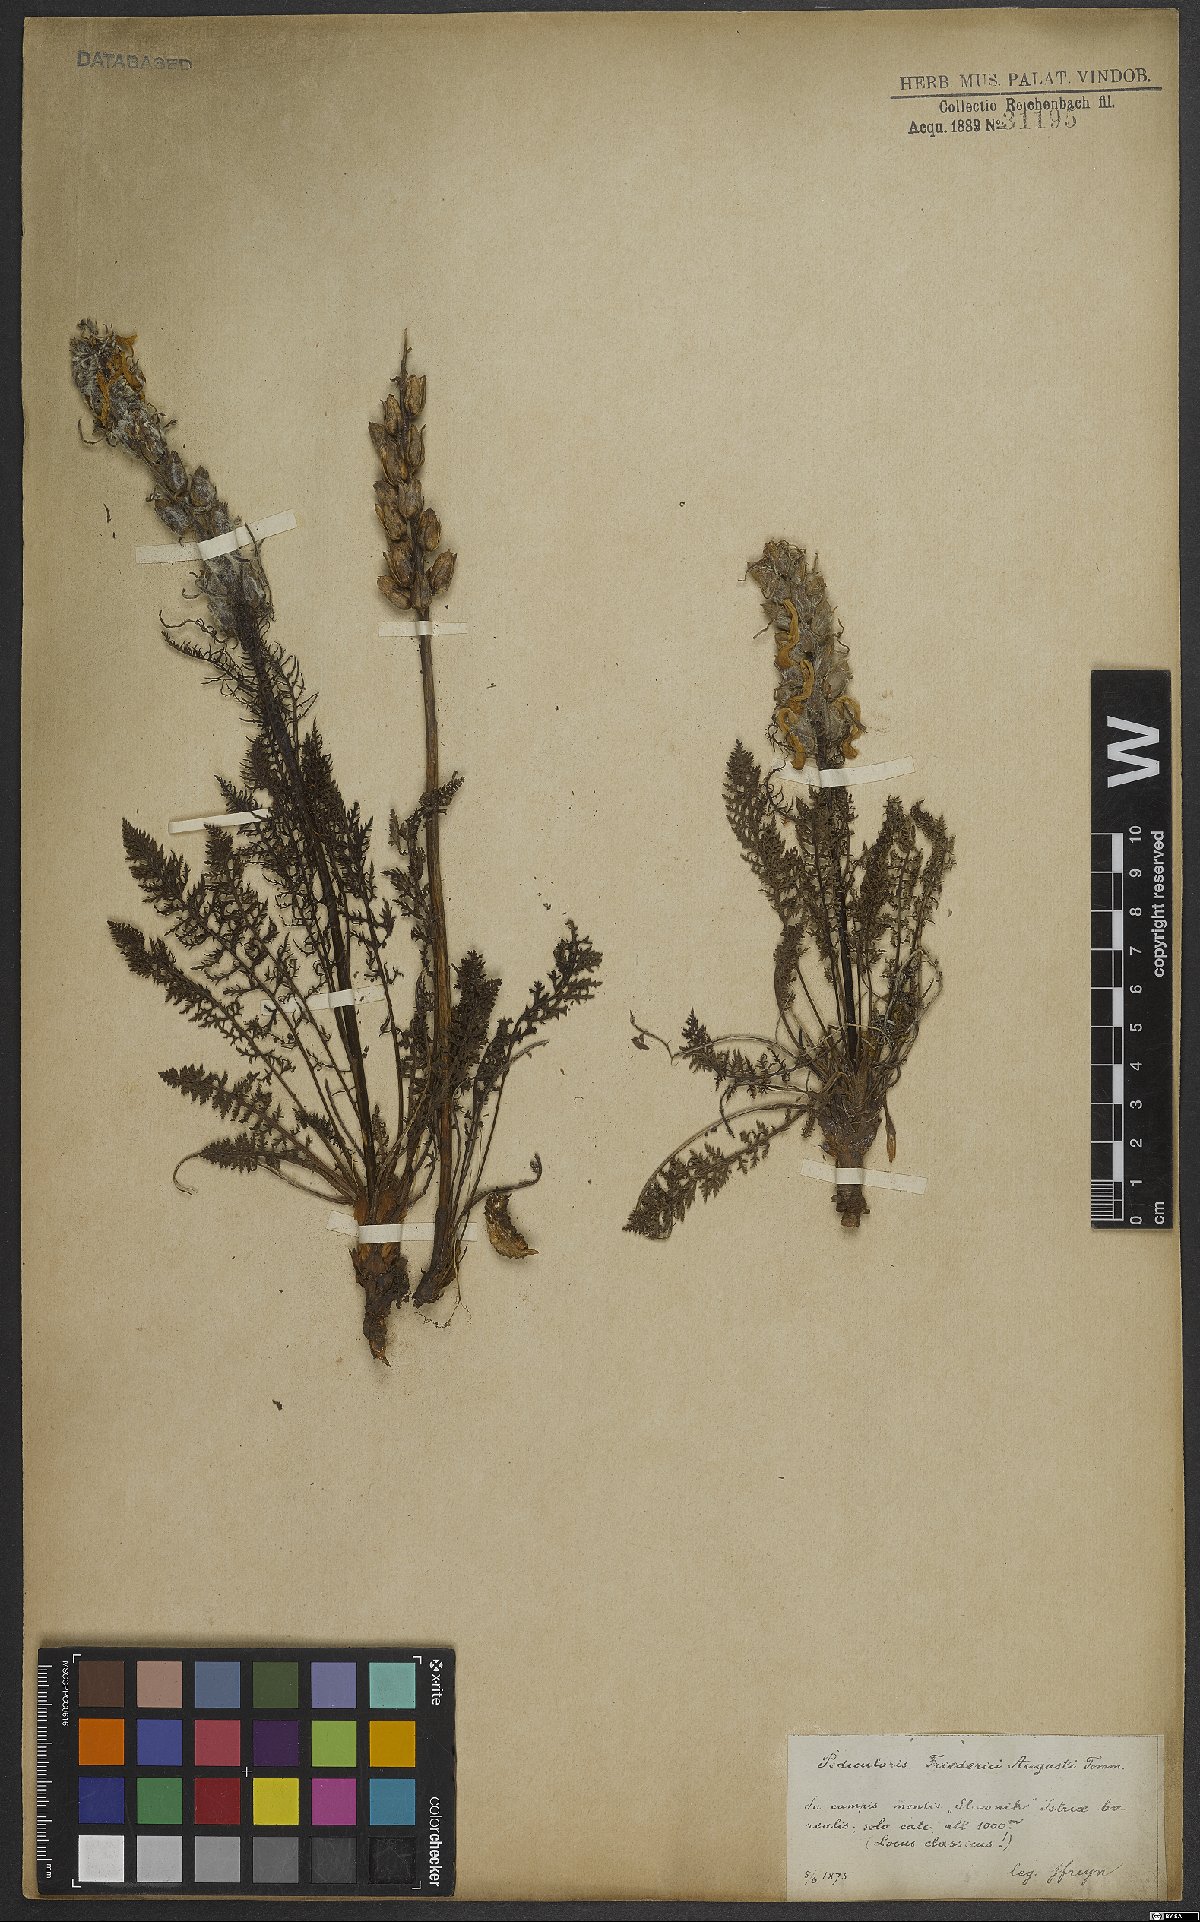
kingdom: Plantae
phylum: Tracheophyta
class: Magnoliopsida
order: Lamiales
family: Orobanchaceae
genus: Pedicularis
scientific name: Pedicularis friderici-augusti
